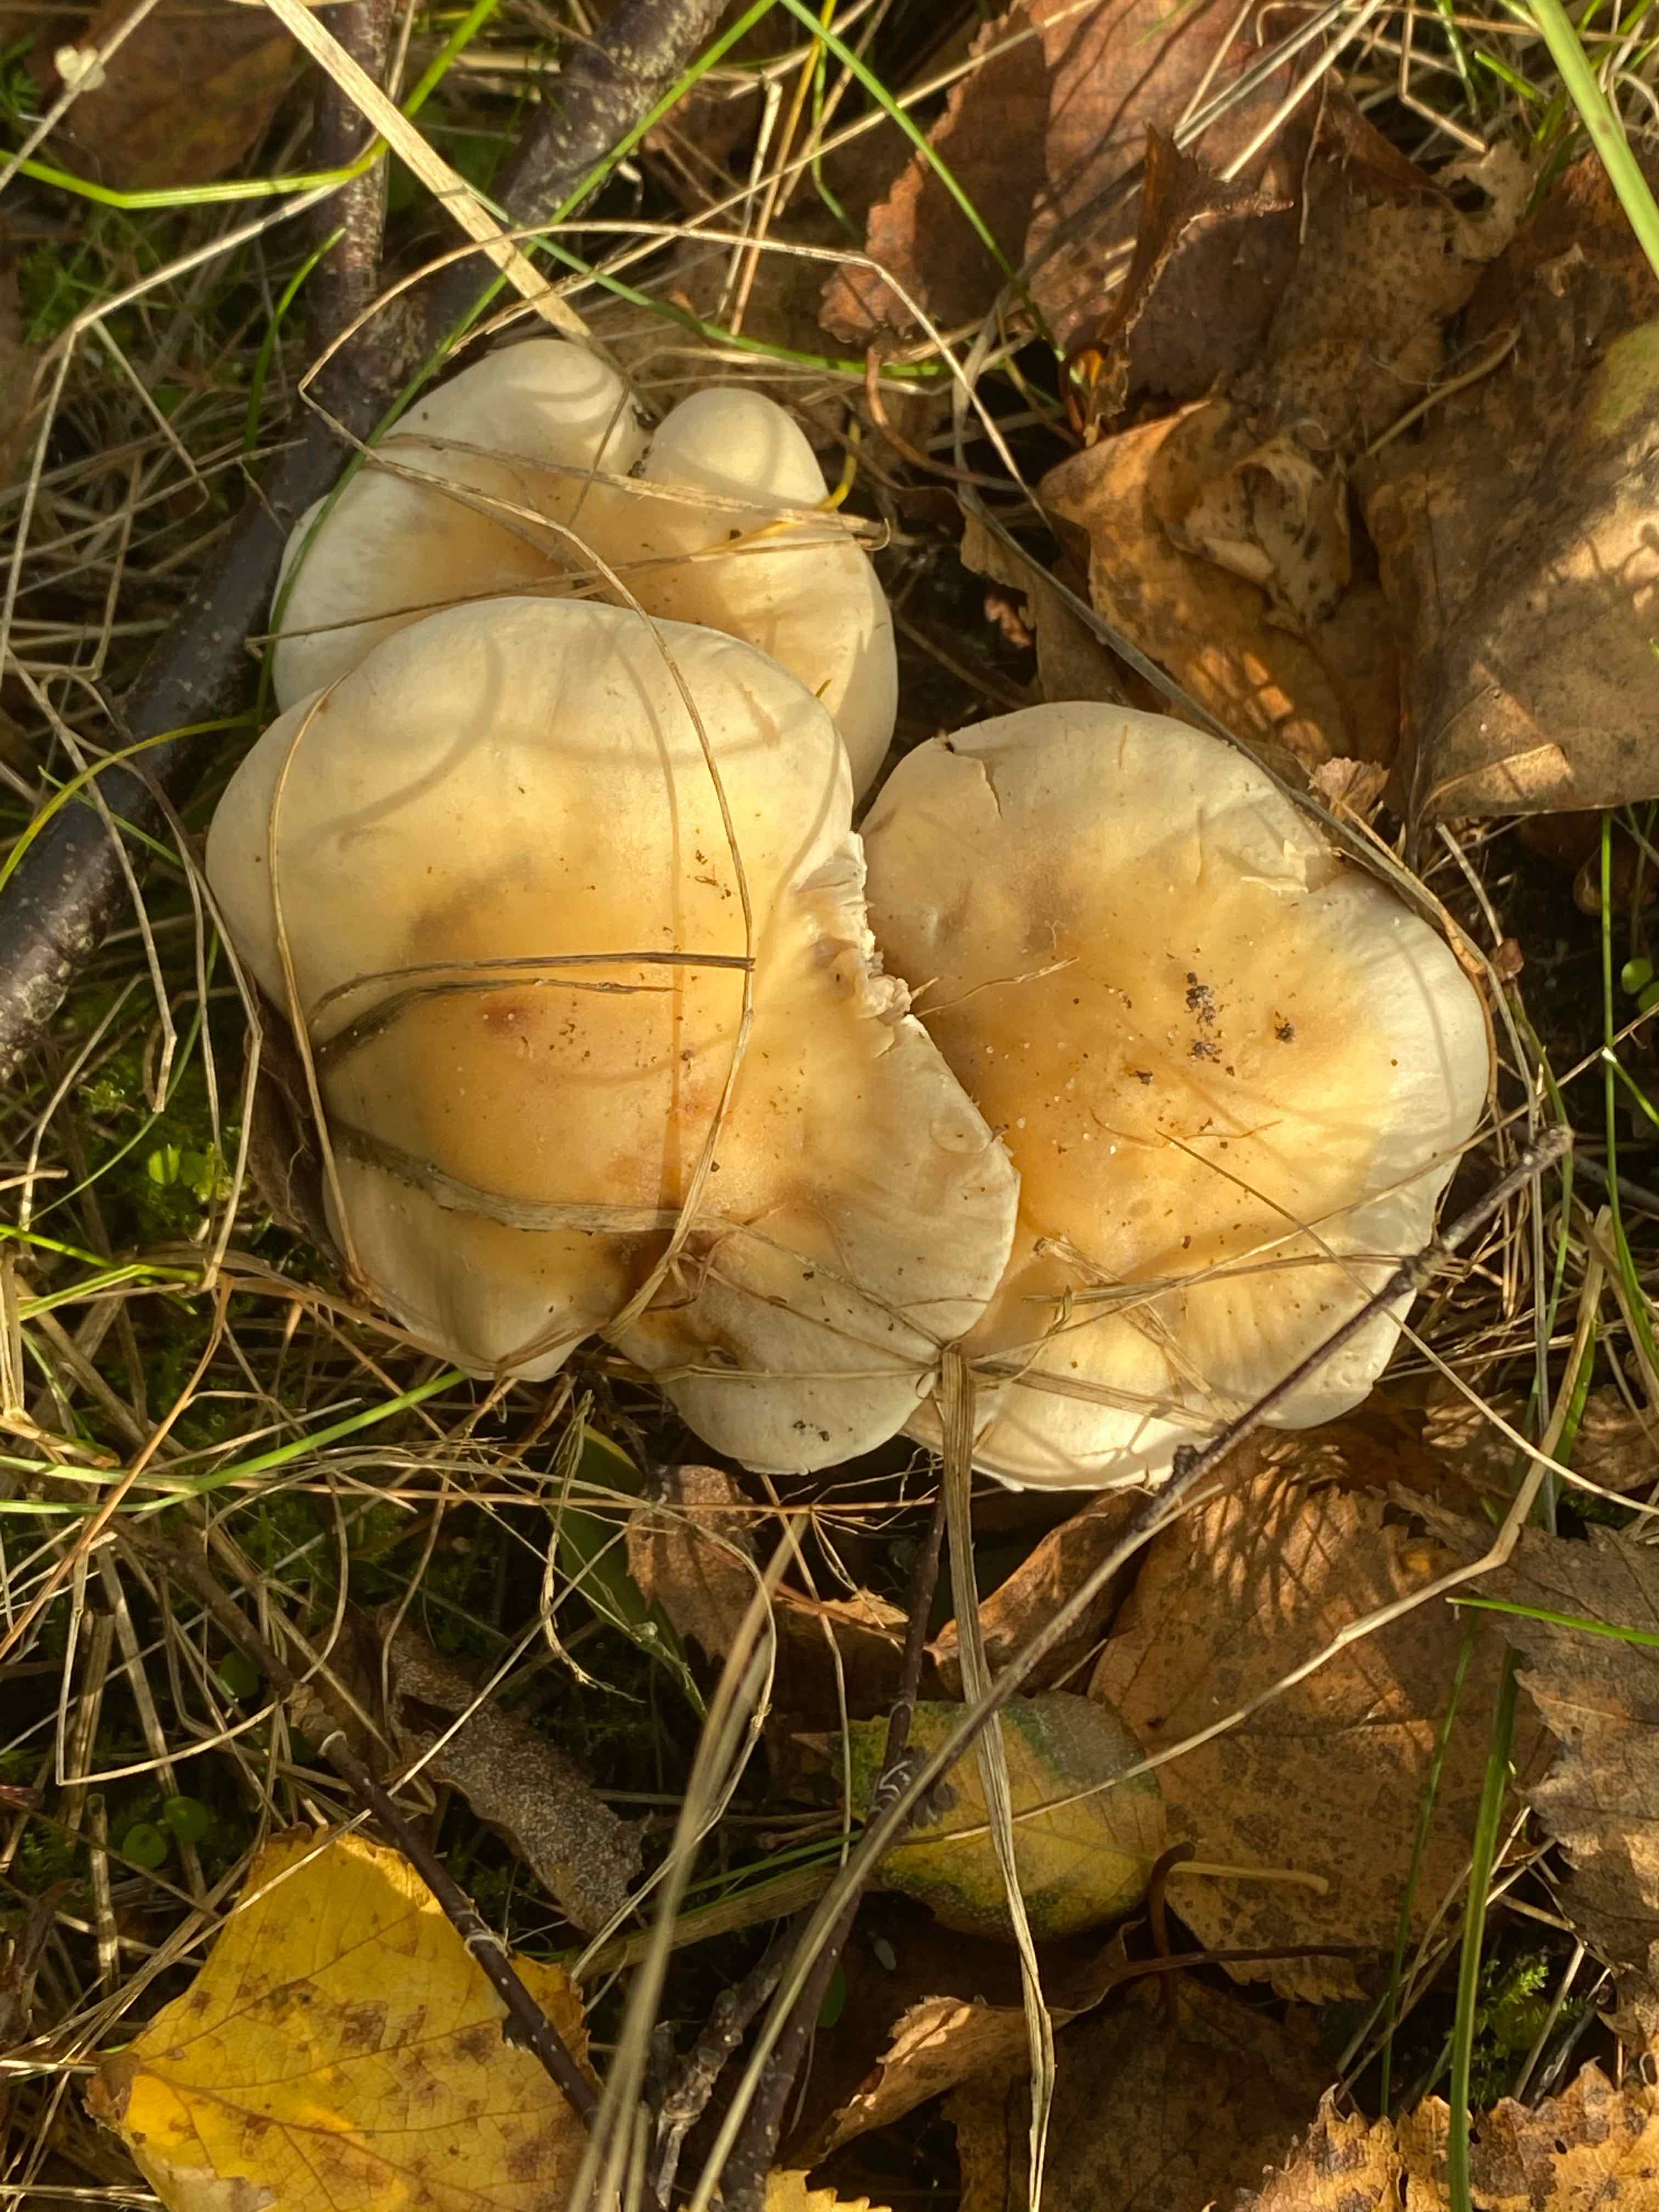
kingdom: Fungi
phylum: Basidiomycota
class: Agaricomycetes
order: Agaricales
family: Hymenogastraceae
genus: Hebeloma
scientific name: Hebeloma
